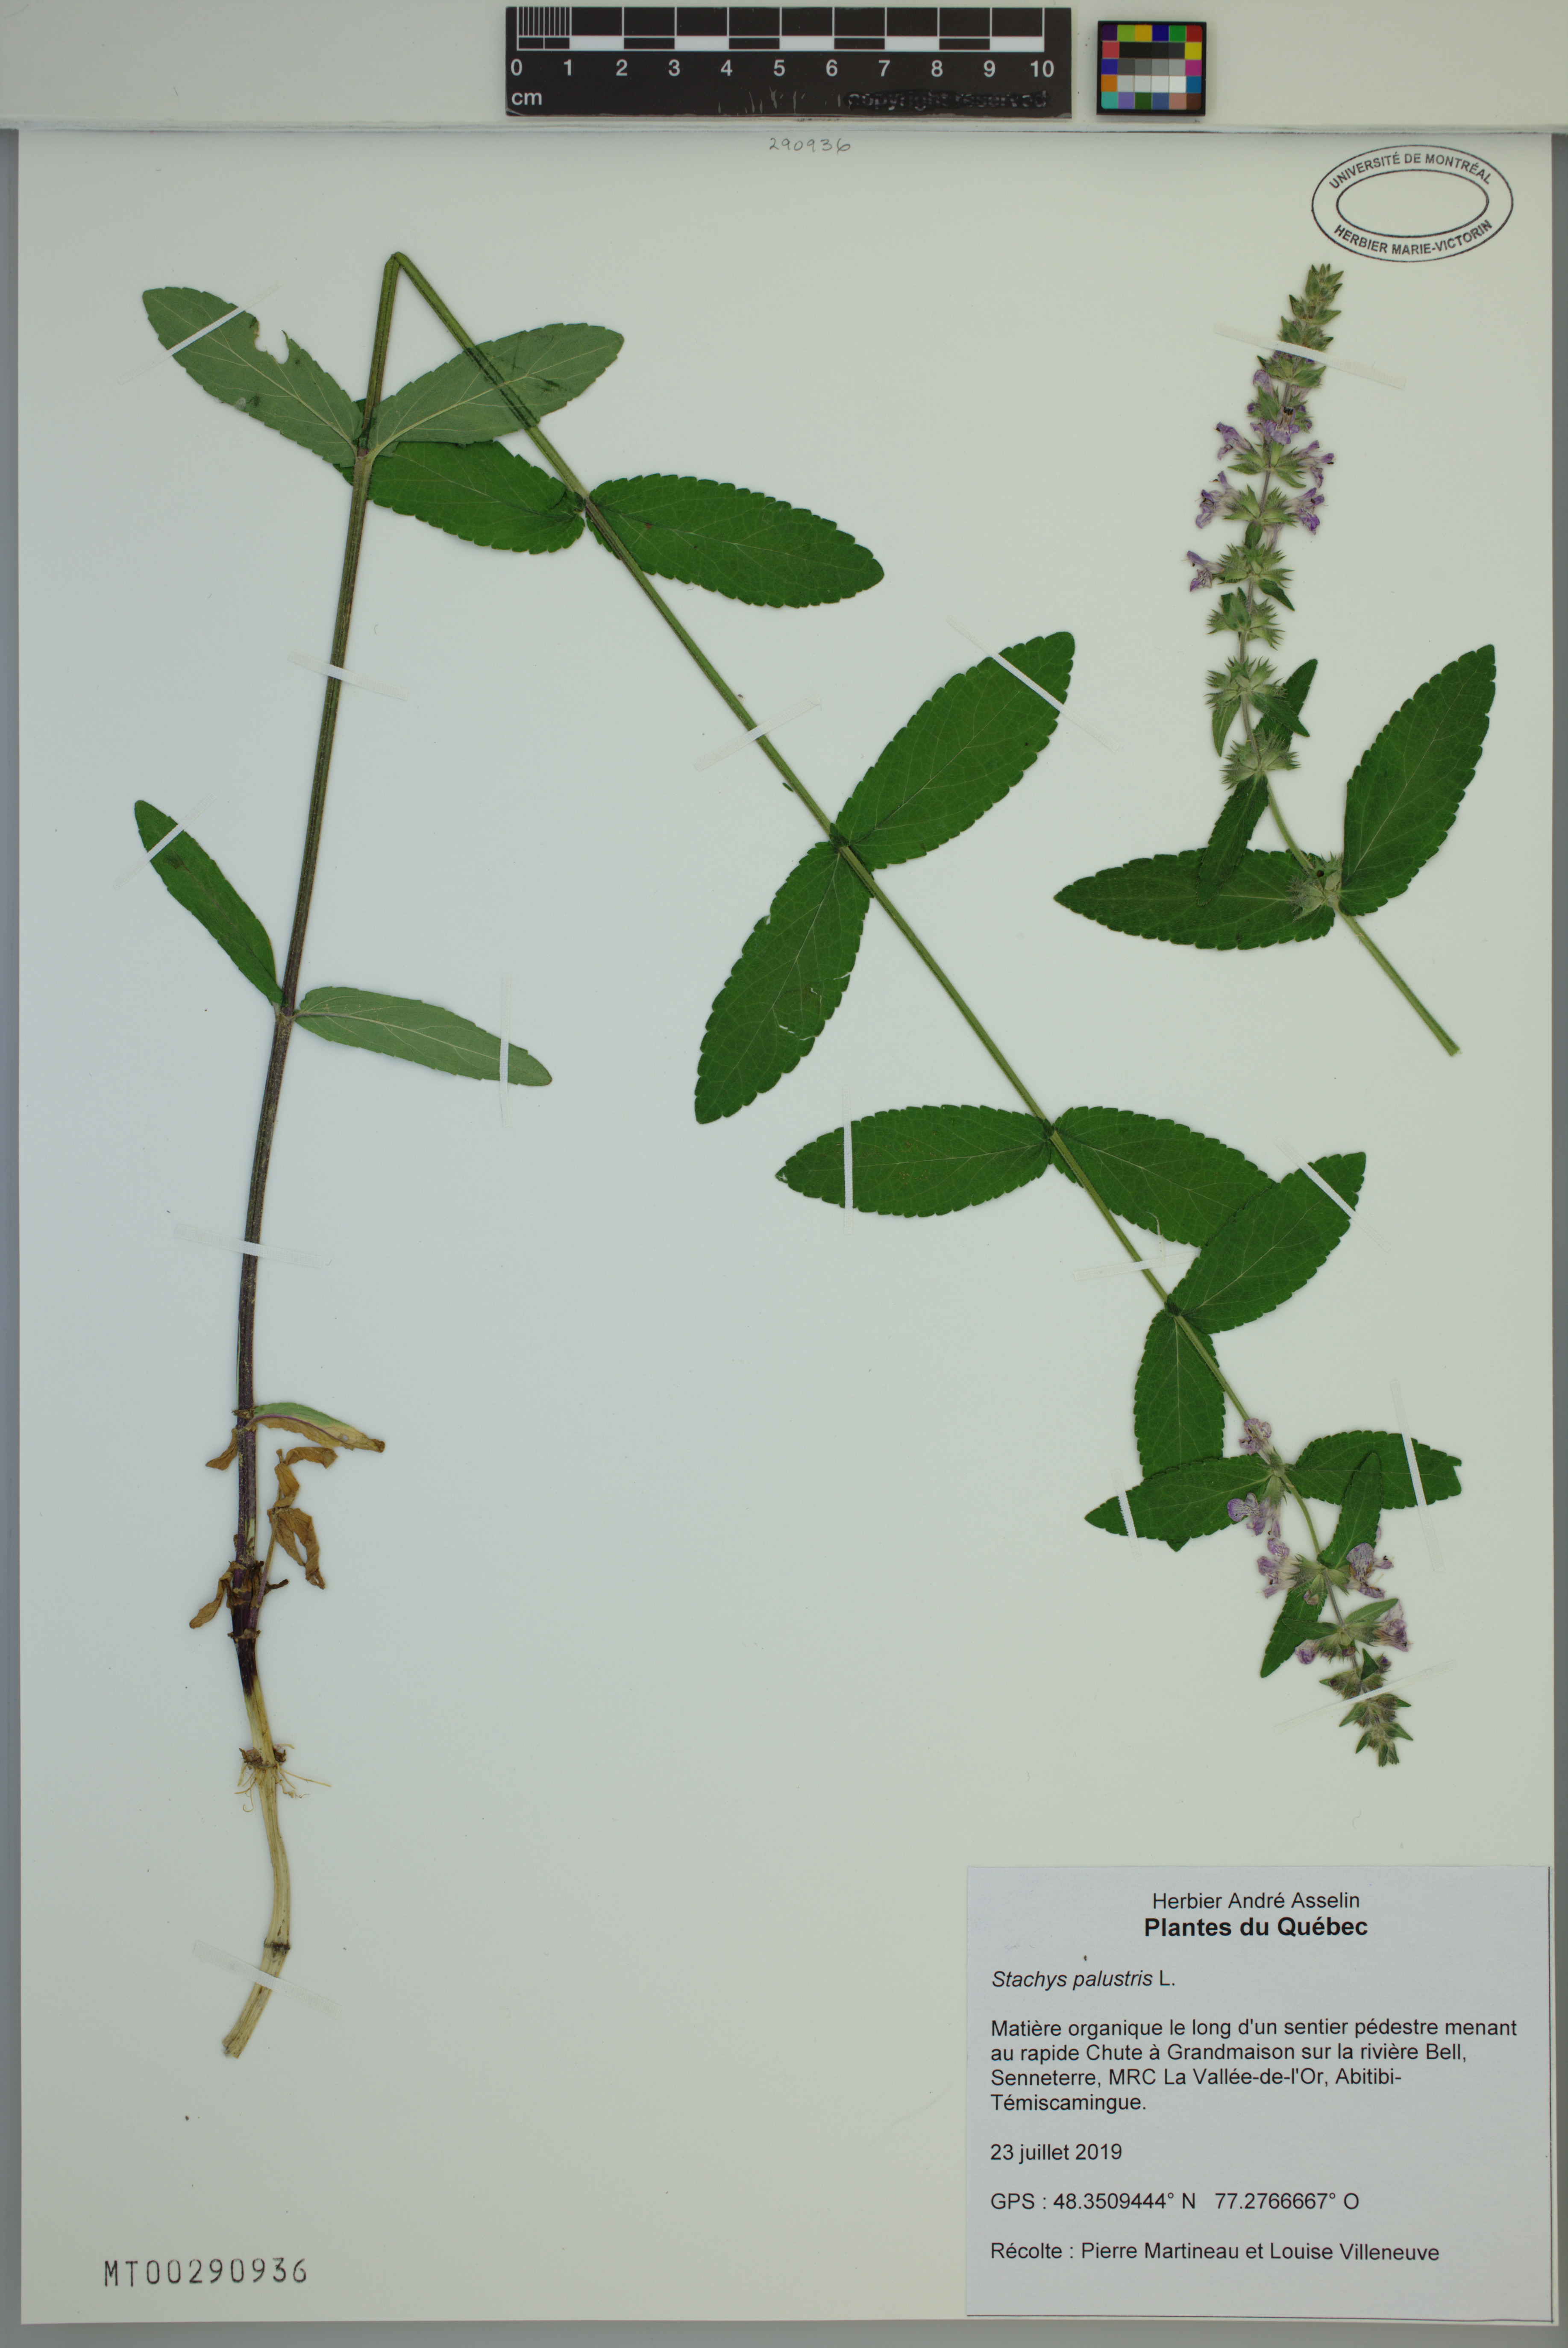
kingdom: Plantae
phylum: Tracheophyta
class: Magnoliopsida
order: Lamiales
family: Lamiaceae
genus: Stachys
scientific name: Stachys palustris
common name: Marsh woundwort
